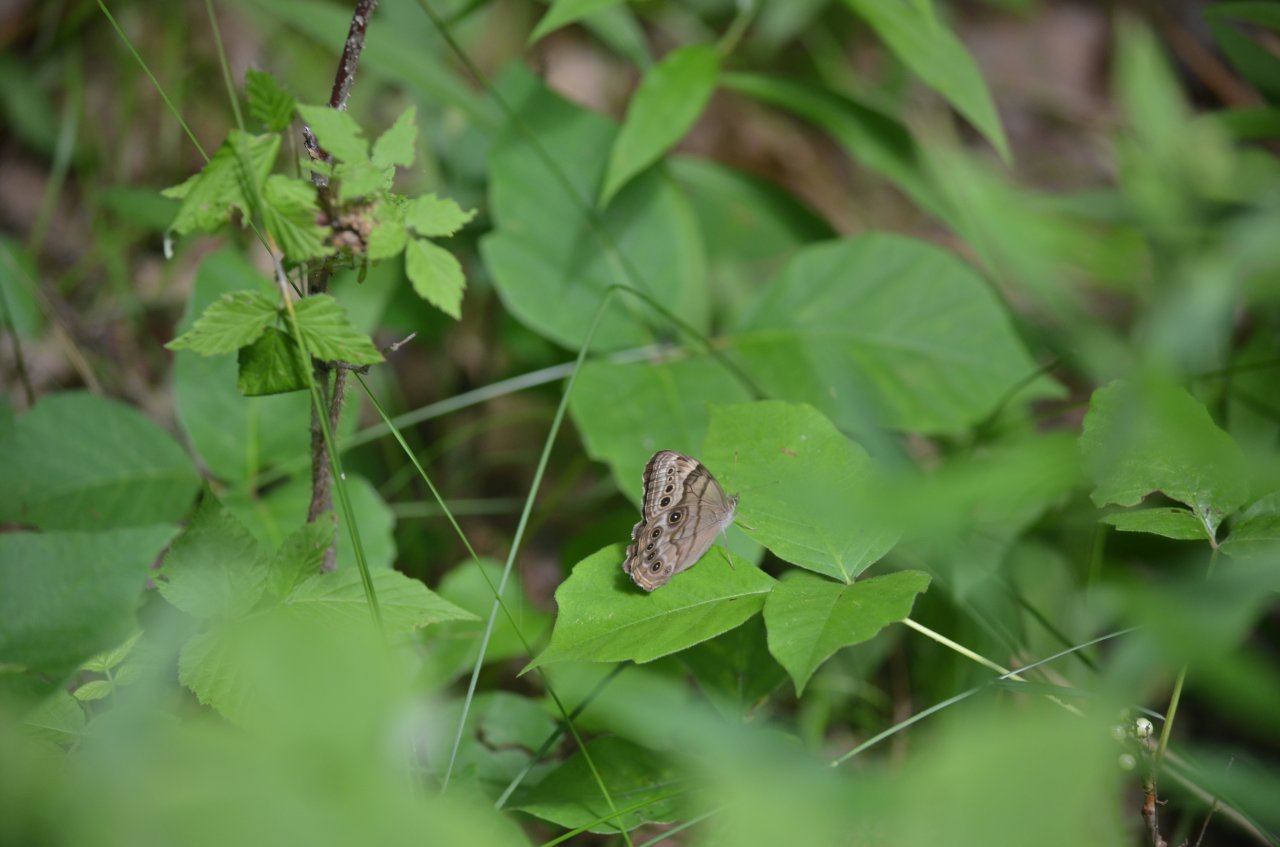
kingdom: Animalia
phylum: Arthropoda
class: Insecta
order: Lepidoptera
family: Nymphalidae
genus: Lethe
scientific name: Lethe anthedon
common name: Northern Pearly-Eye
